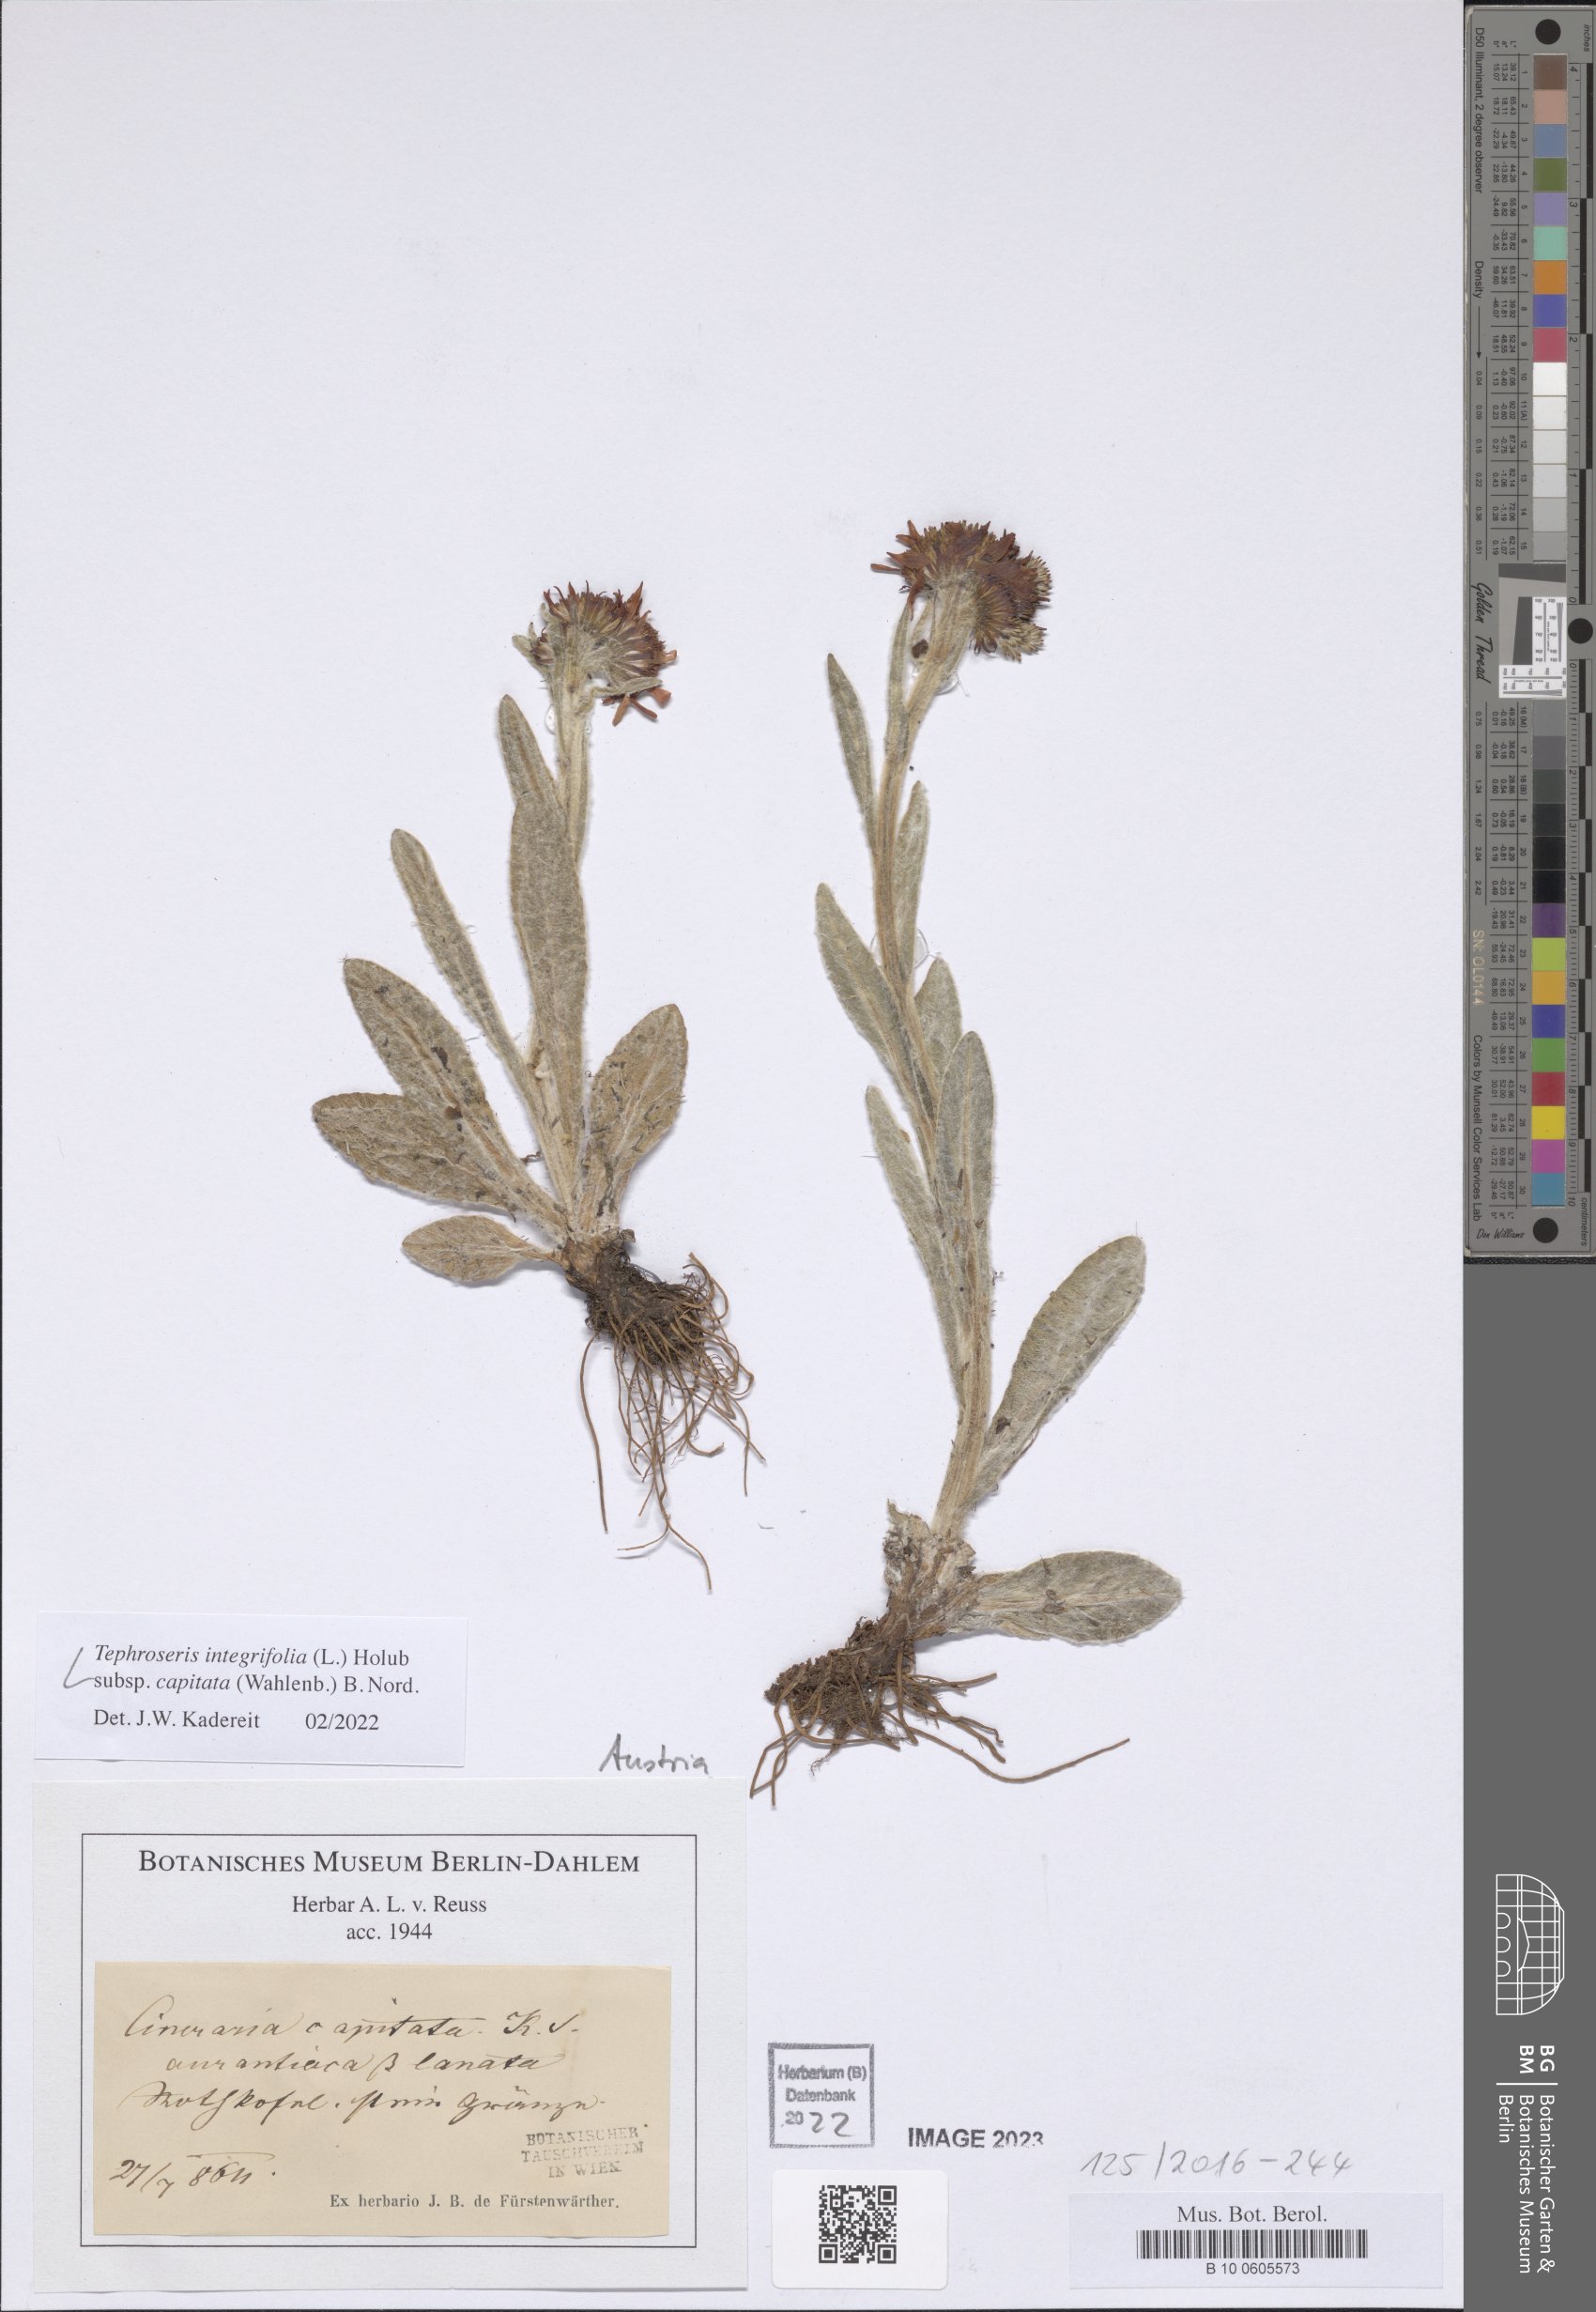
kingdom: Plantae
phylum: Tracheophyta
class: Magnoliopsida
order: Asterales
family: Asteraceae
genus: Tephroseris
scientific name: Tephroseris integrifolia
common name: Field fleawort
